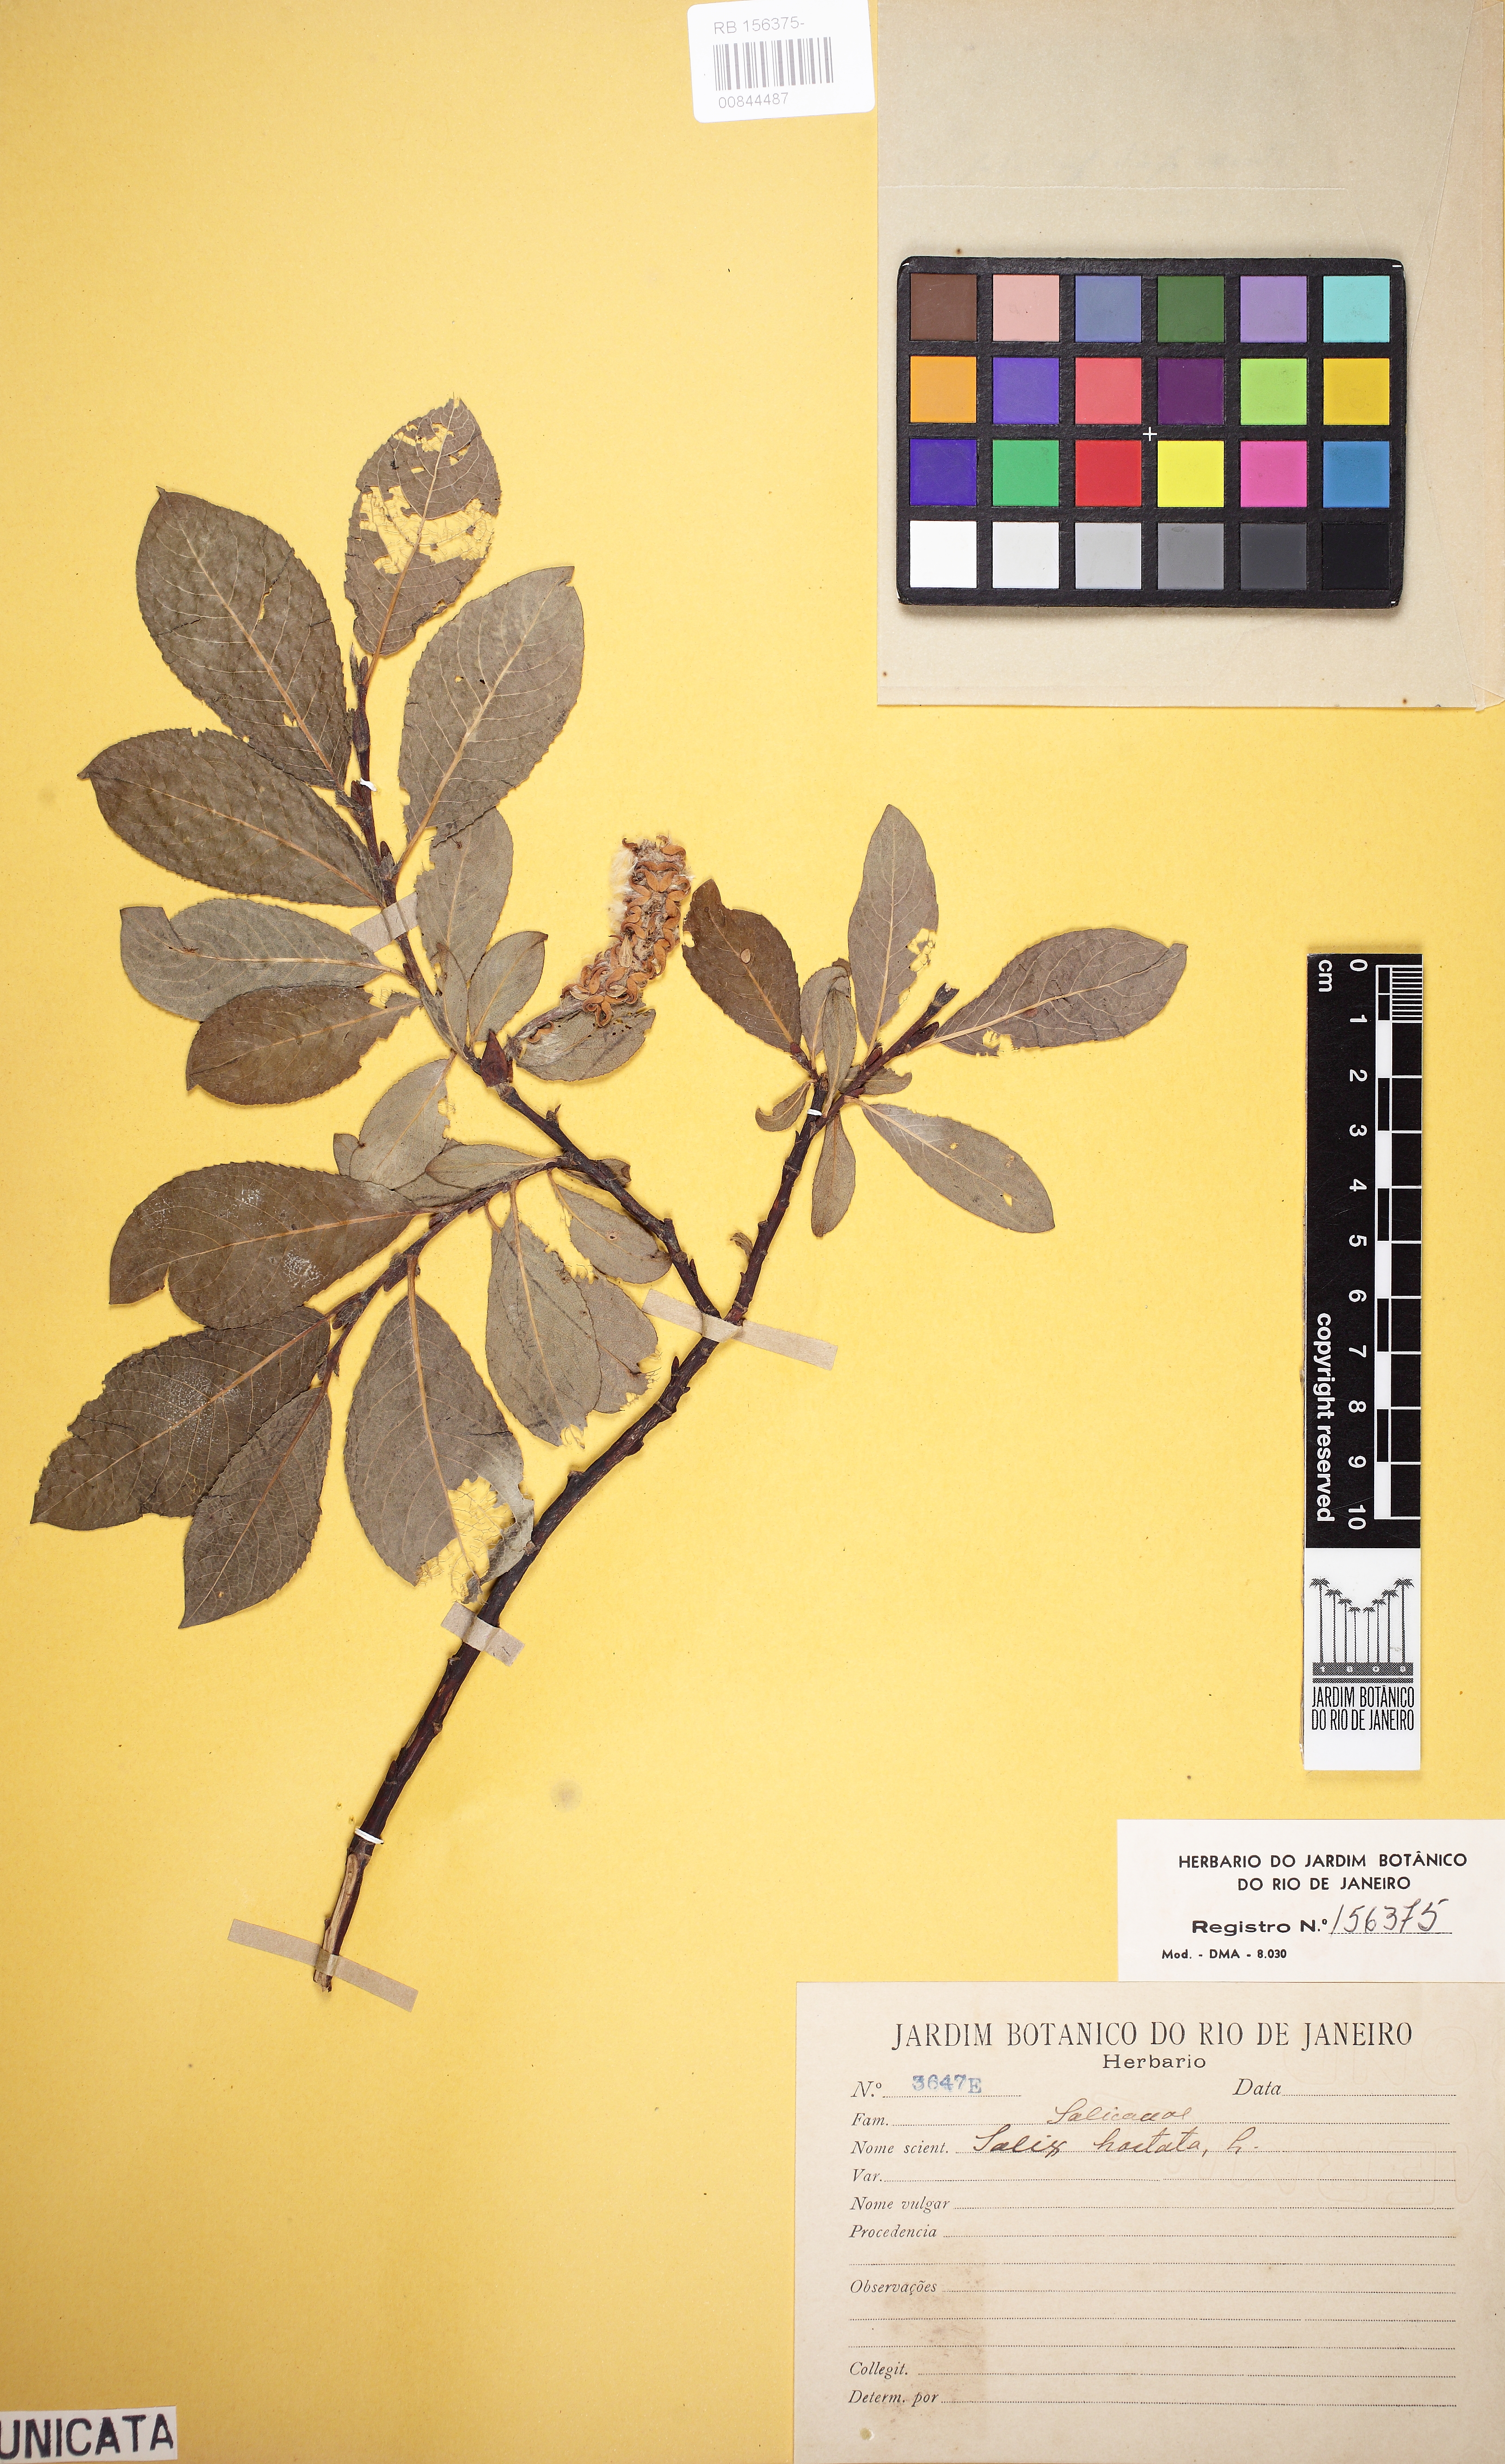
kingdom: Plantae
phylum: Tracheophyta
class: Magnoliopsida
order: Malpighiales
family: Salicaceae
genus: Salix
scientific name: Salix hastata
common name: Halberd willow
